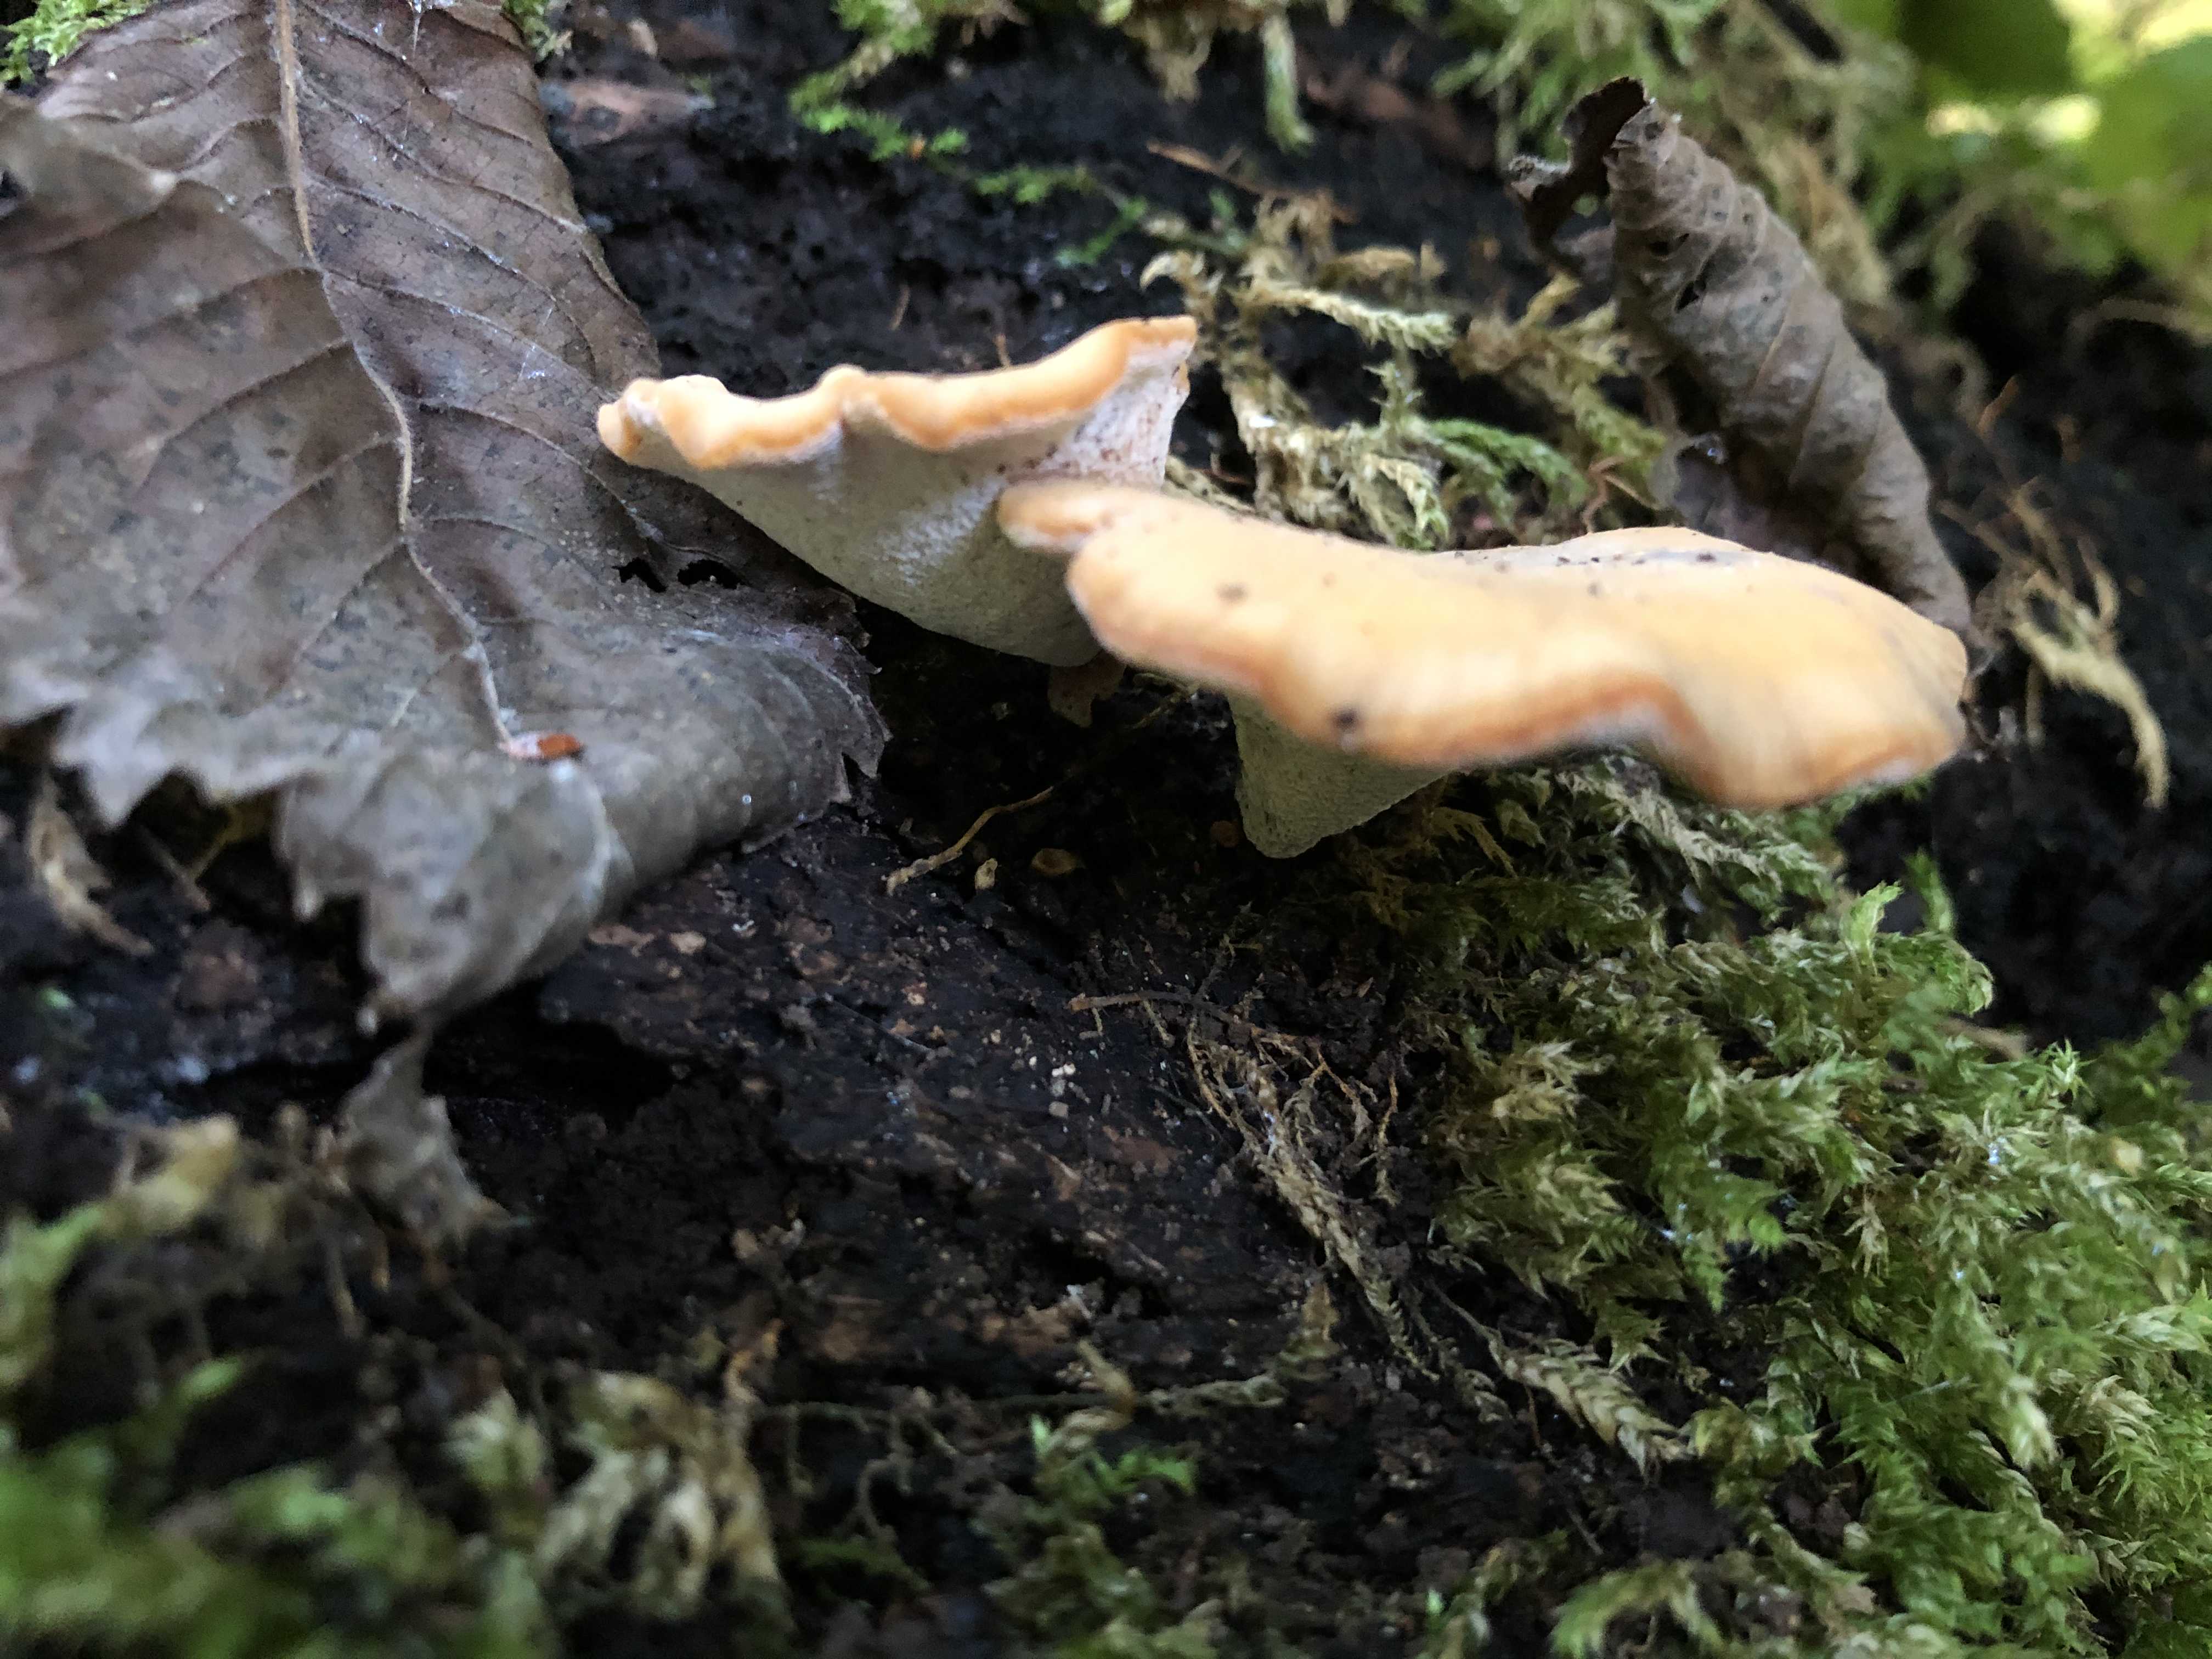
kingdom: Fungi
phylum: Basidiomycota
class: Agaricomycetes
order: Polyporales
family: Polyporaceae
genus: Cerioporus
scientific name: Cerioporus varius
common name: foranderlig stilkporesvamp
